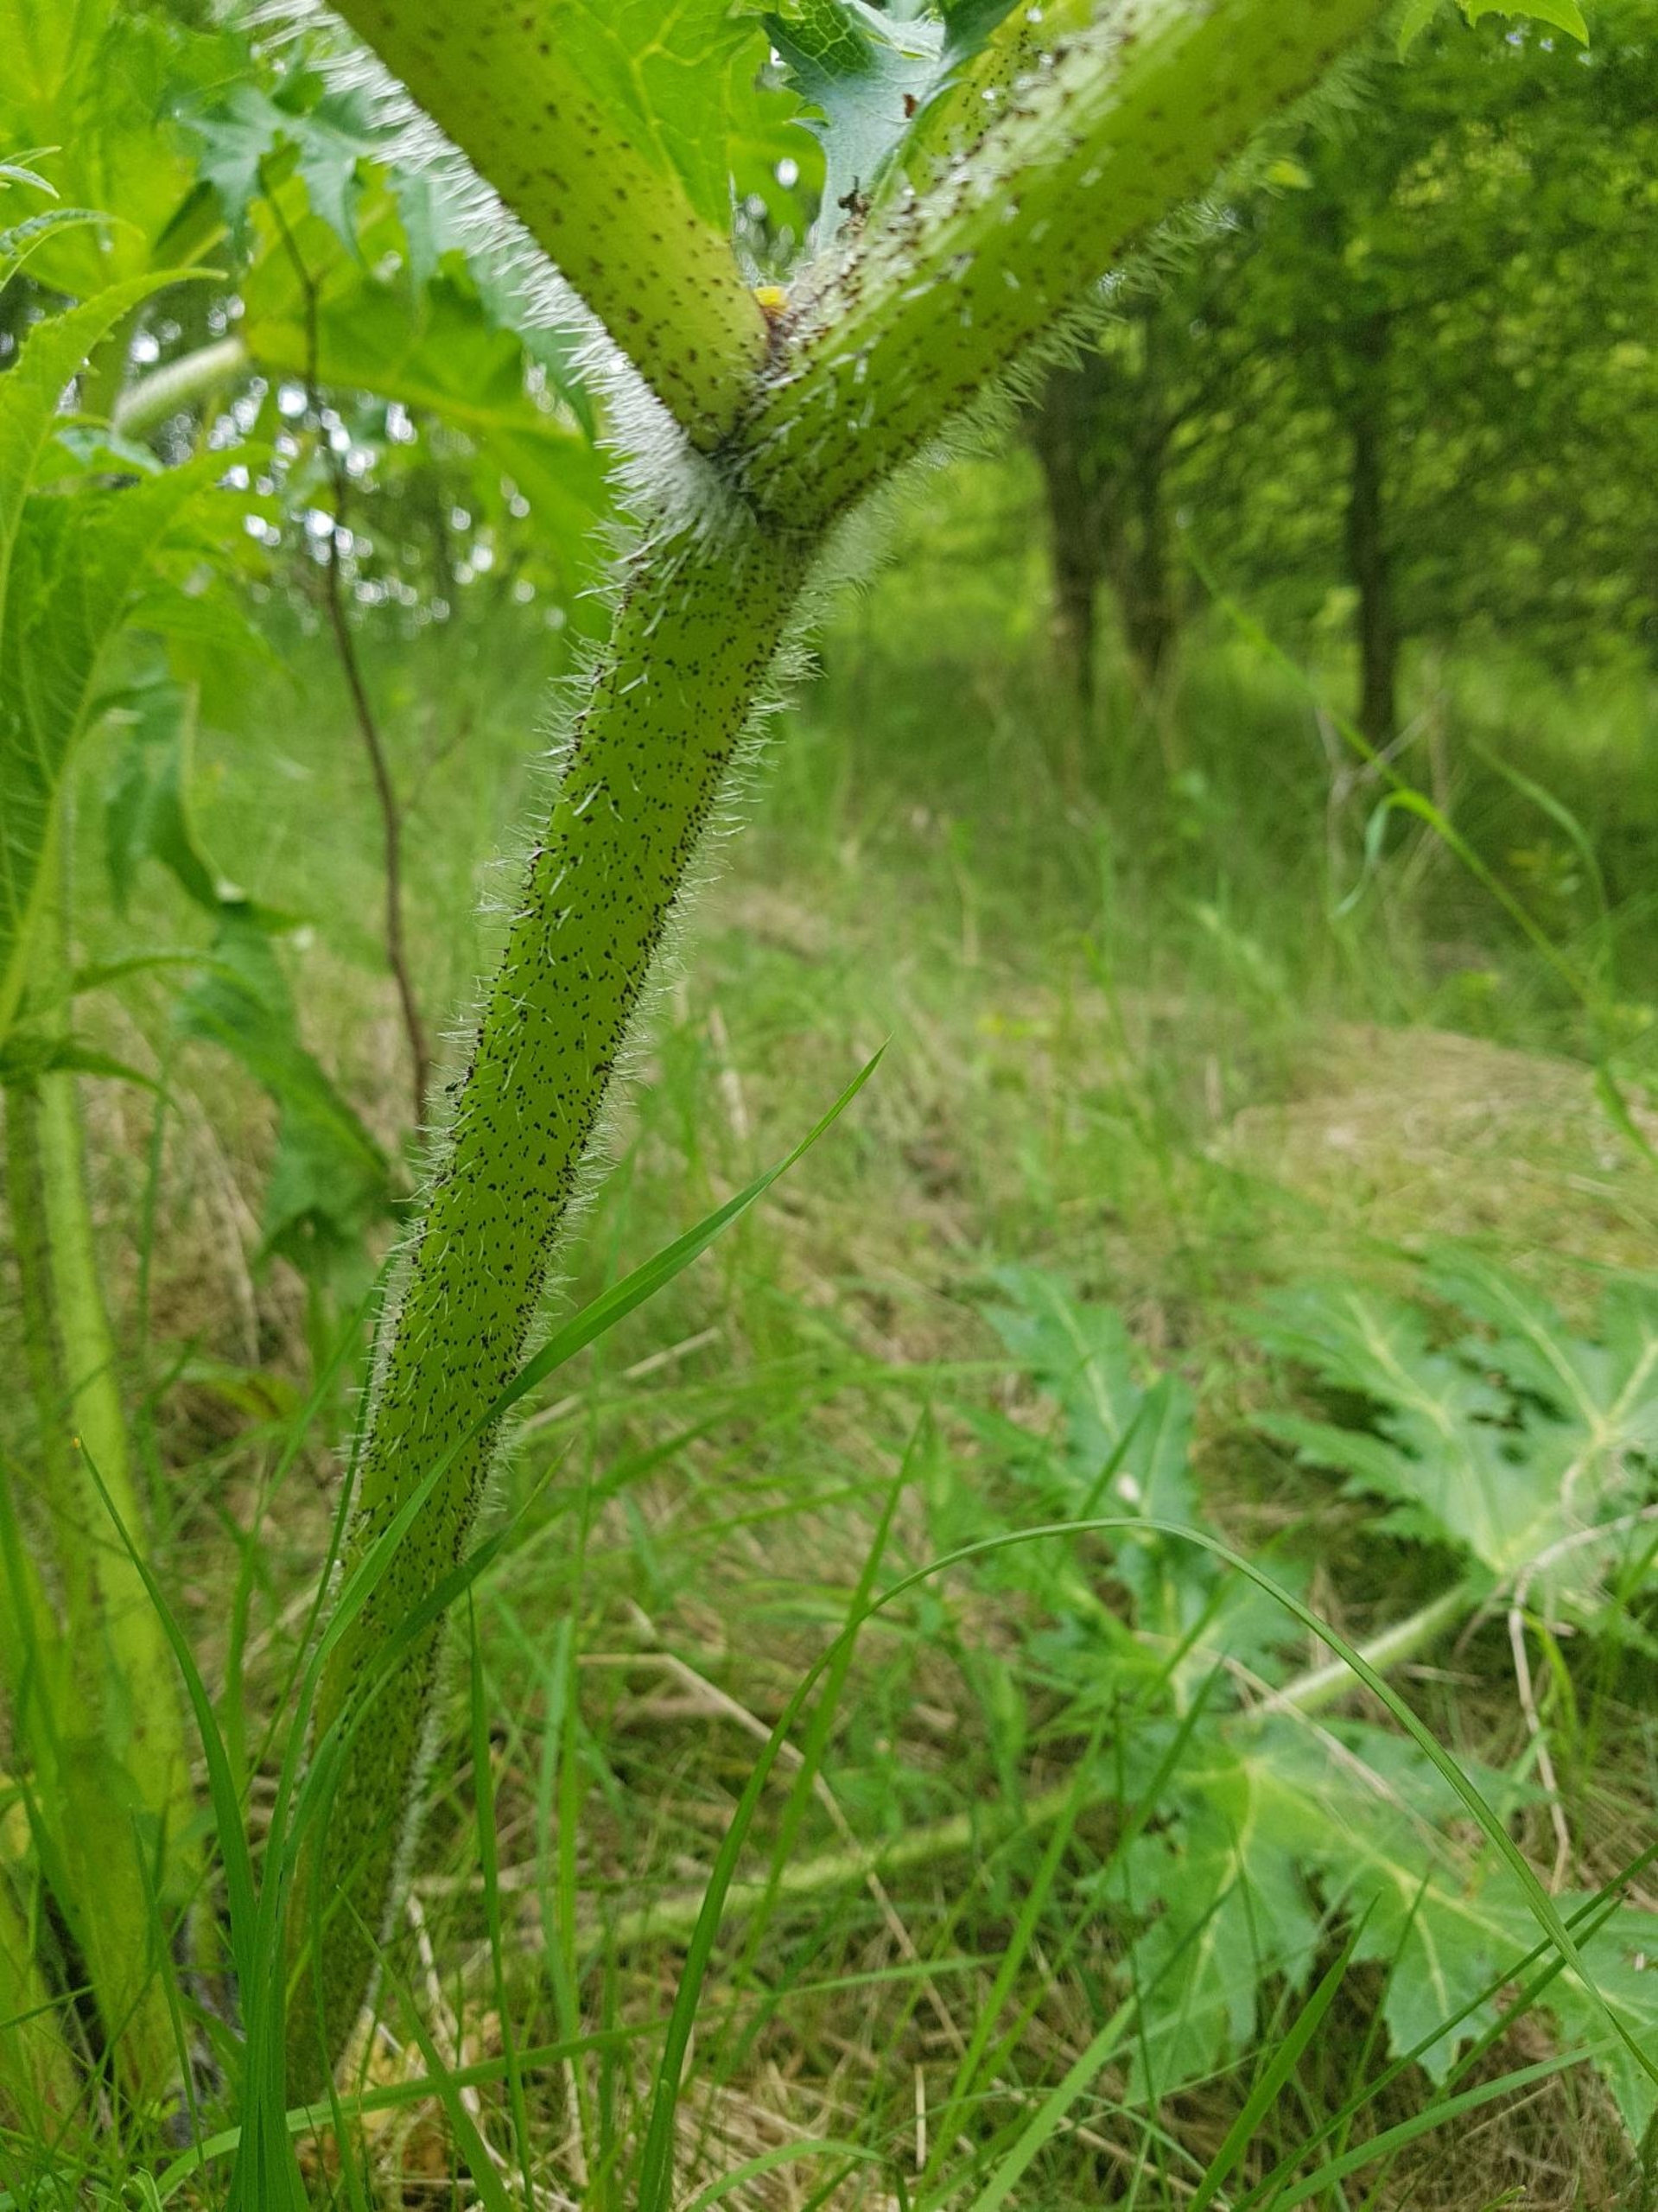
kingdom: Plantae
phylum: Tracheophyta
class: Magnoliopsida
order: Apiales
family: Apiaceae
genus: Heracleum
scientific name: Heracleum mantegazzianum
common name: Kæmpe-bjørneklo
